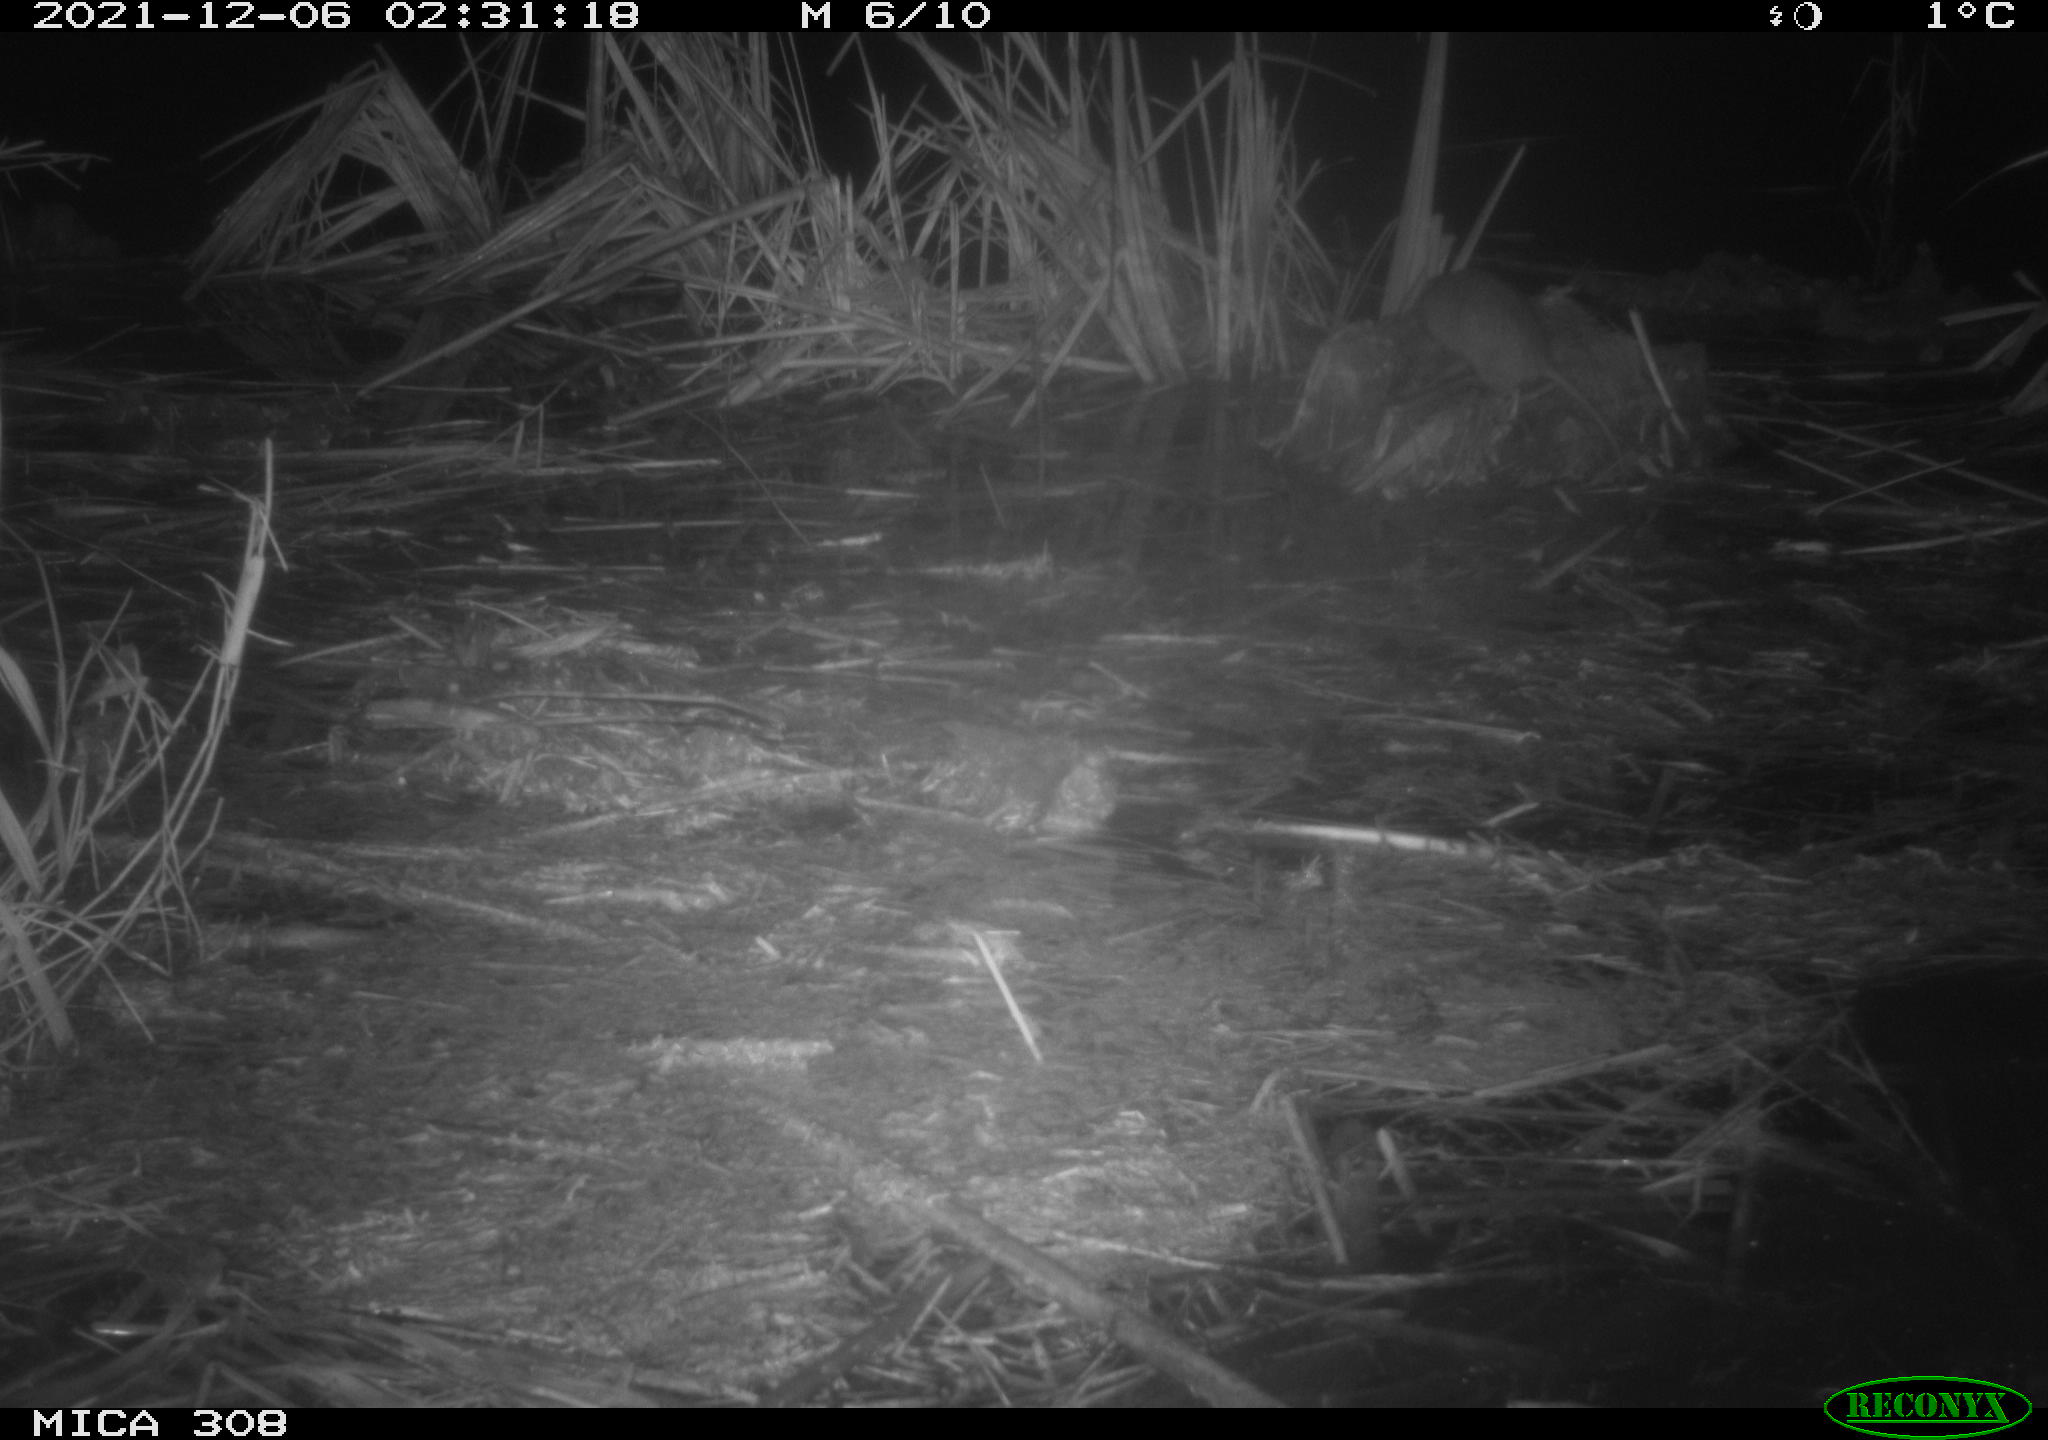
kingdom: Animalia
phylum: Chordata
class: Mammalia
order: Rodentia
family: Muridae
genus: Rattus
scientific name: Rattus norvegicus
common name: Brown rat
